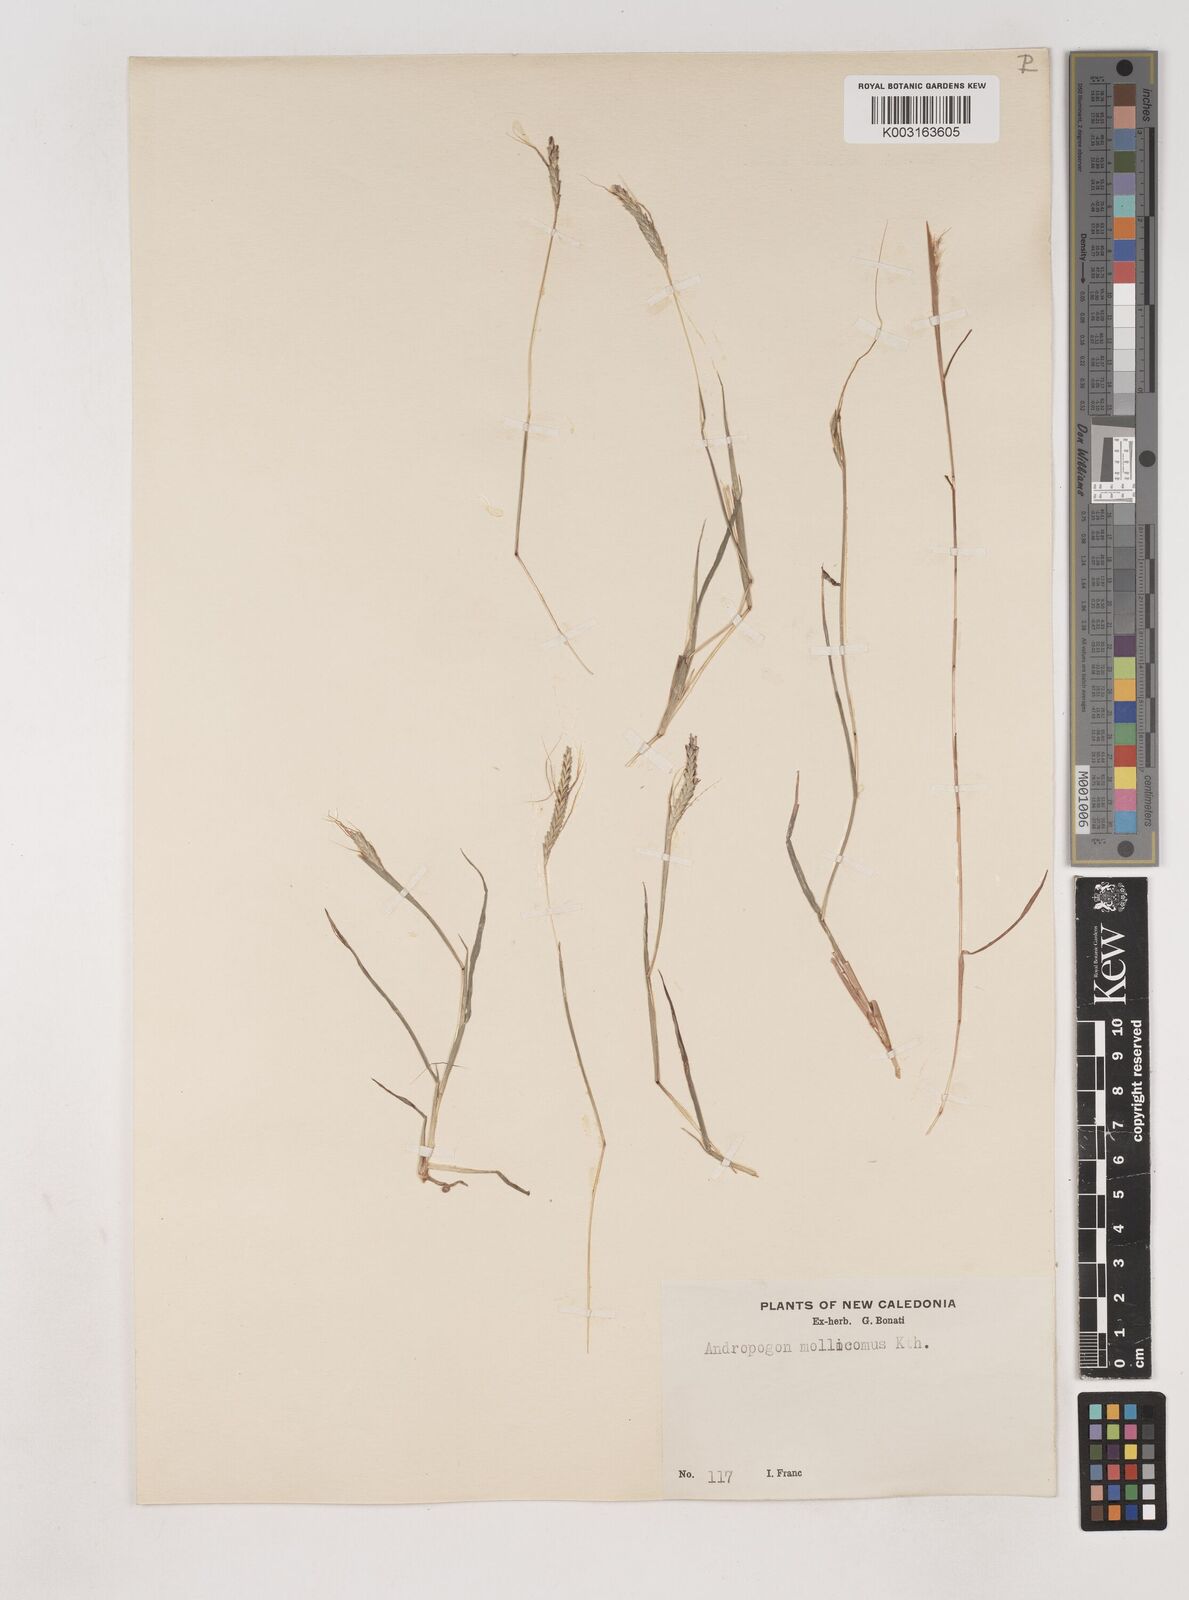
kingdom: Plantae
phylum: Tracheophyta
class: Liliopsida
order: Poales
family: Poaceae
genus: Dichanthium
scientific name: Dichanthium aristatum
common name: Angleton bluestem
